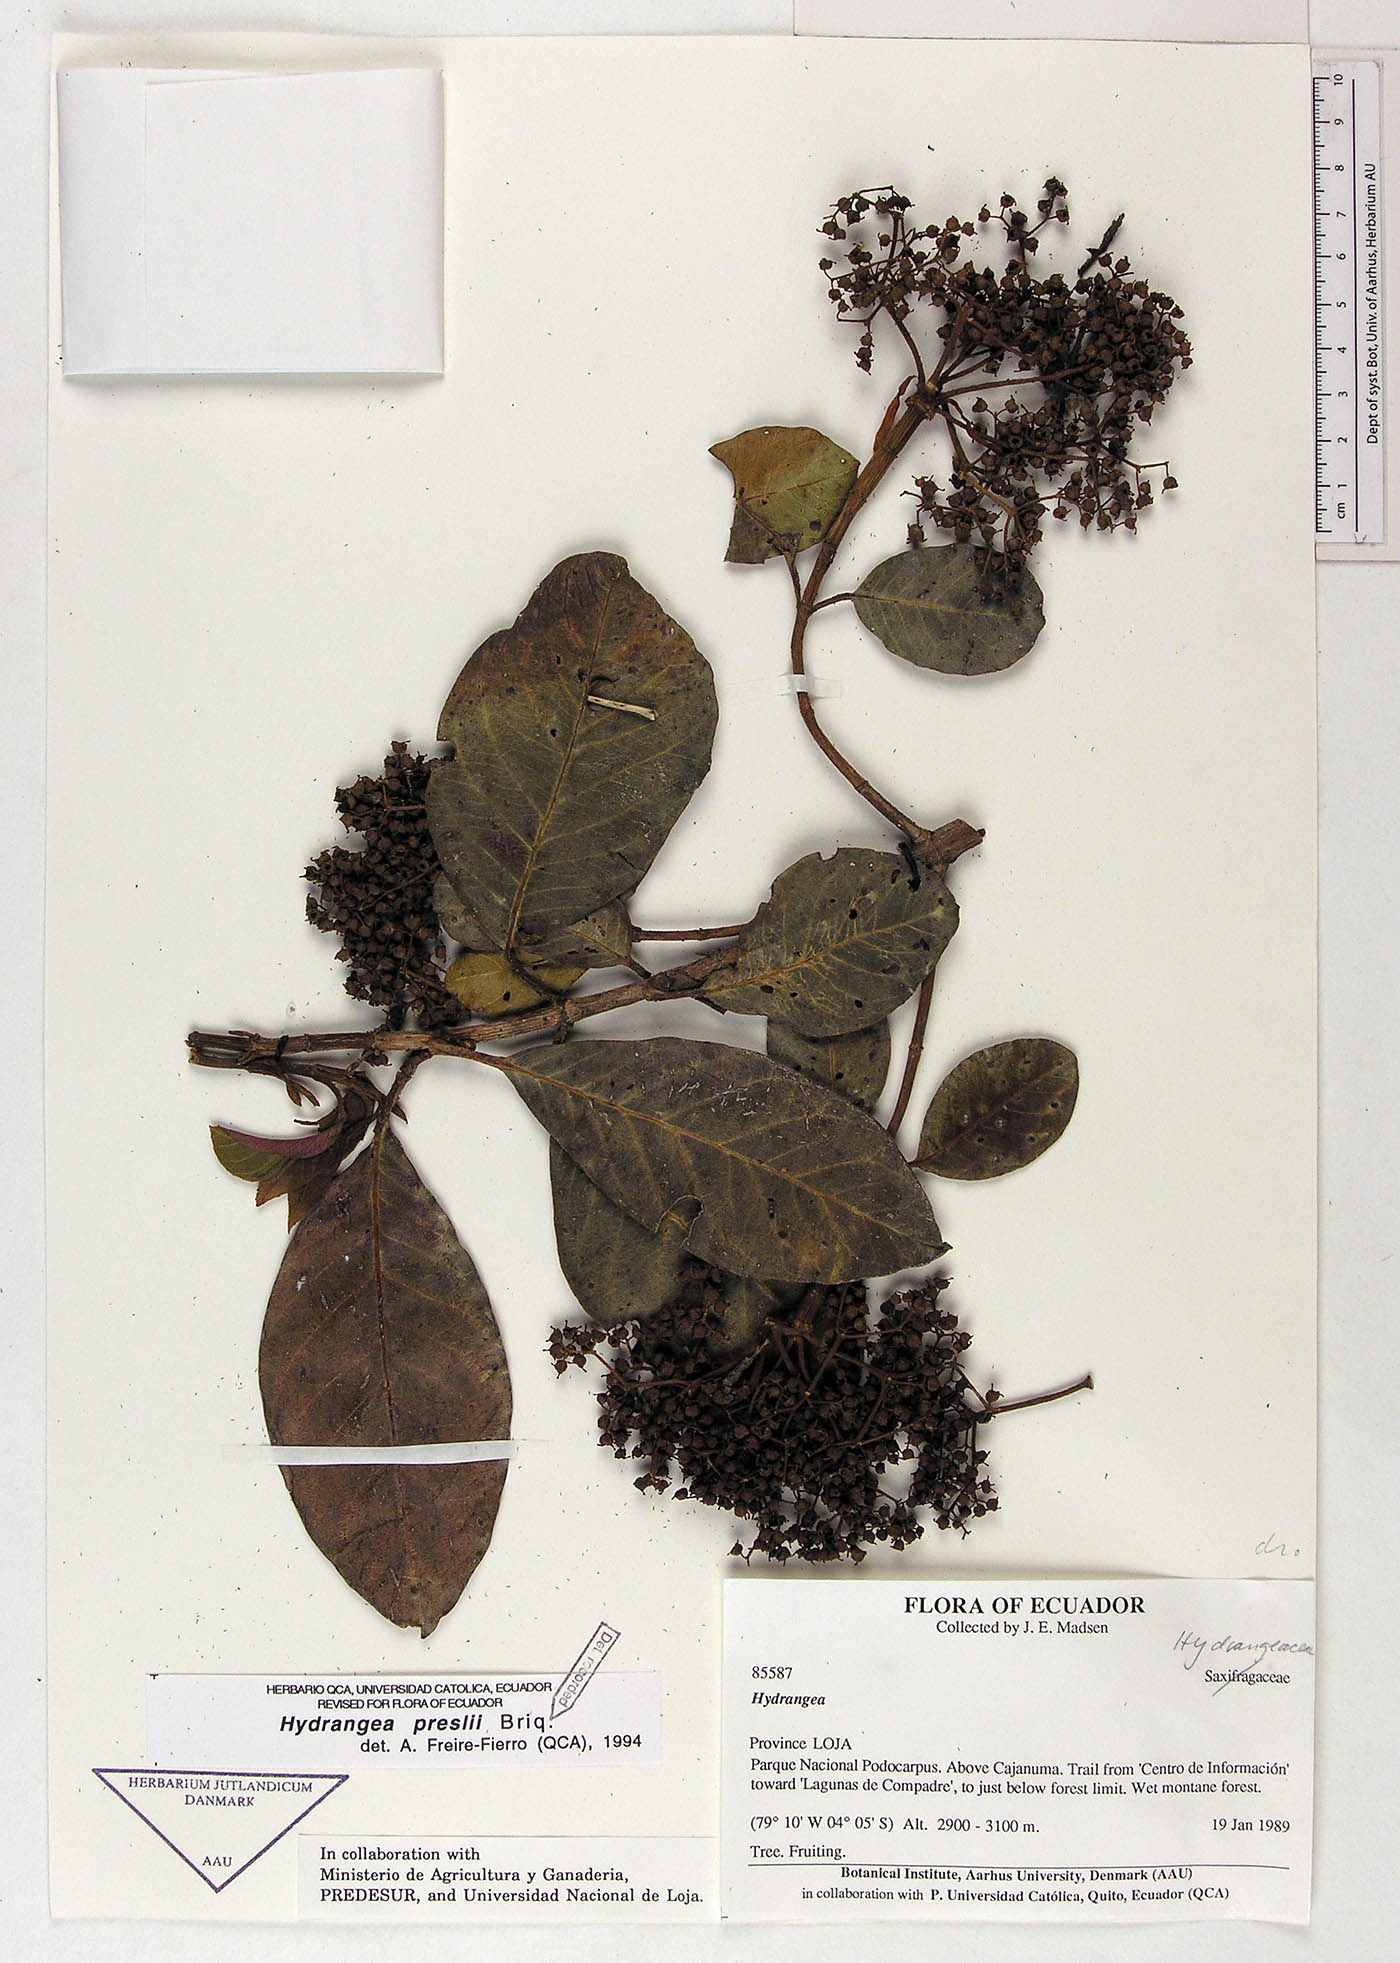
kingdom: Plantae
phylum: Tracheophyta
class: Magnoliopsida
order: Cornales
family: Hydrangeaceae
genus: Hydrangea
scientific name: Hydrangea diplostemona
